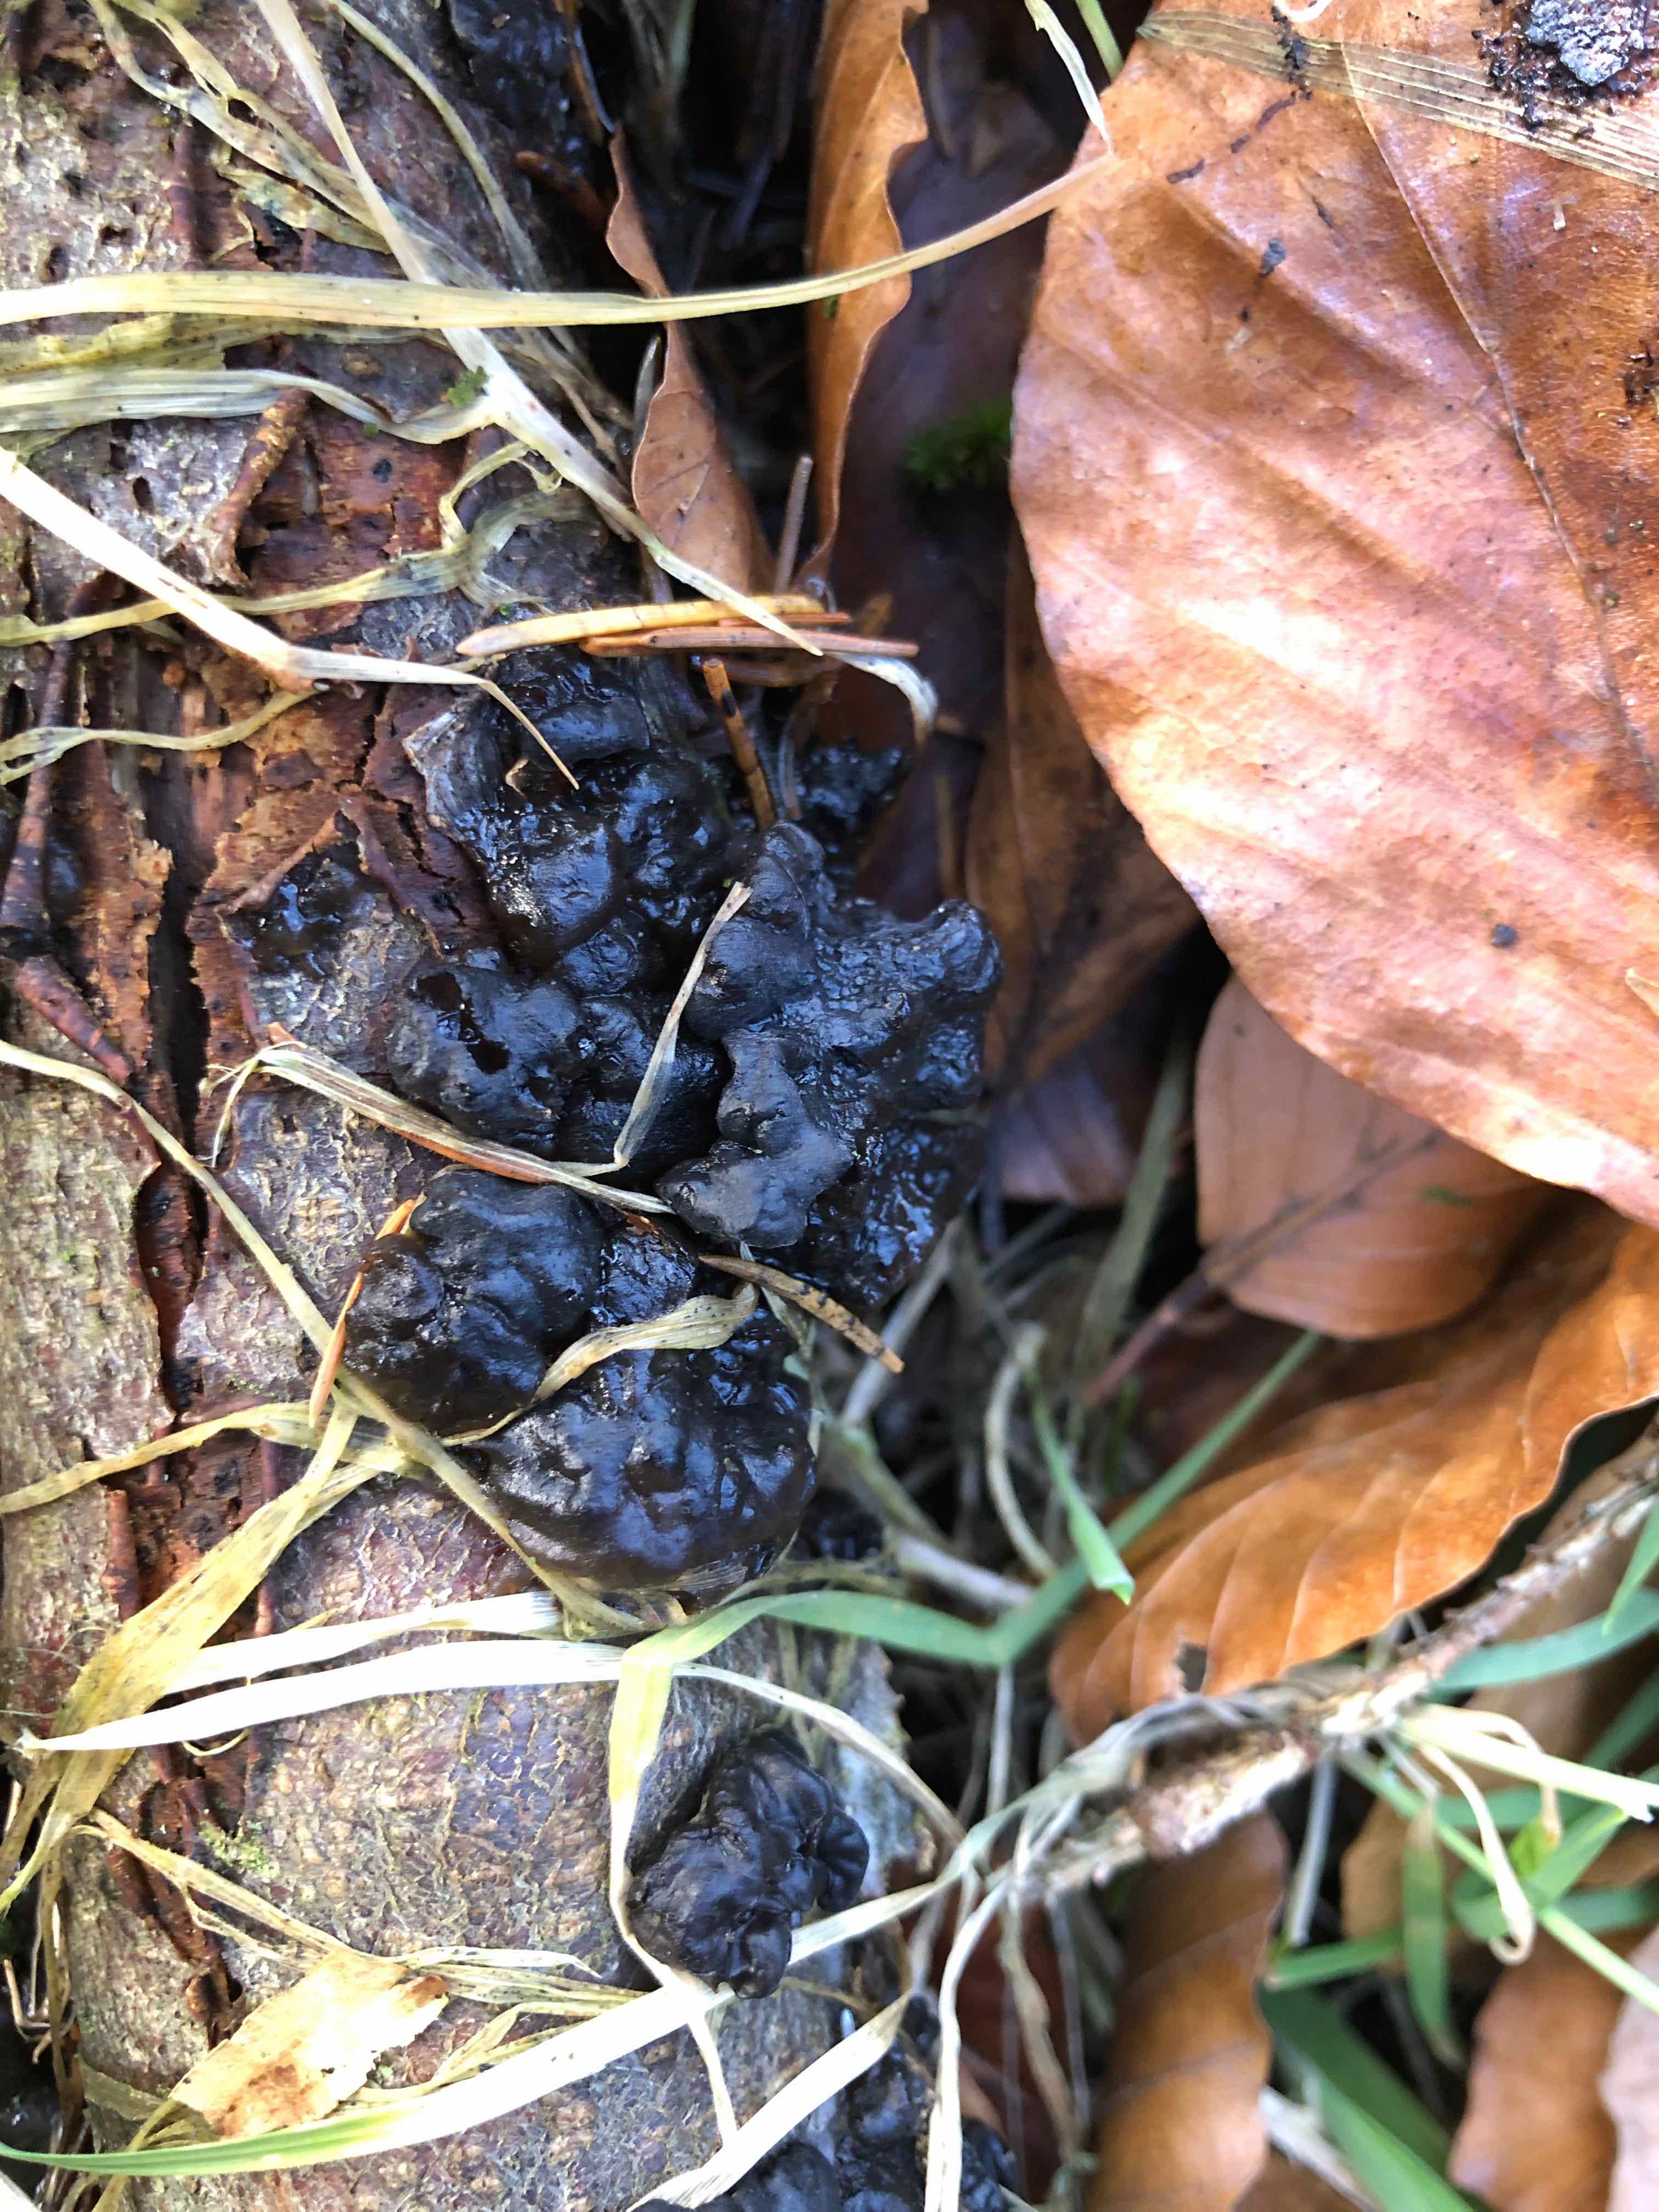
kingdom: Fungi
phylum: Basidiomycota
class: Agaricomycetes
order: Auriculariales
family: Auriculariaceae
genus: Exidia
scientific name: Exidia nigricans
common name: almindelig bævretop
